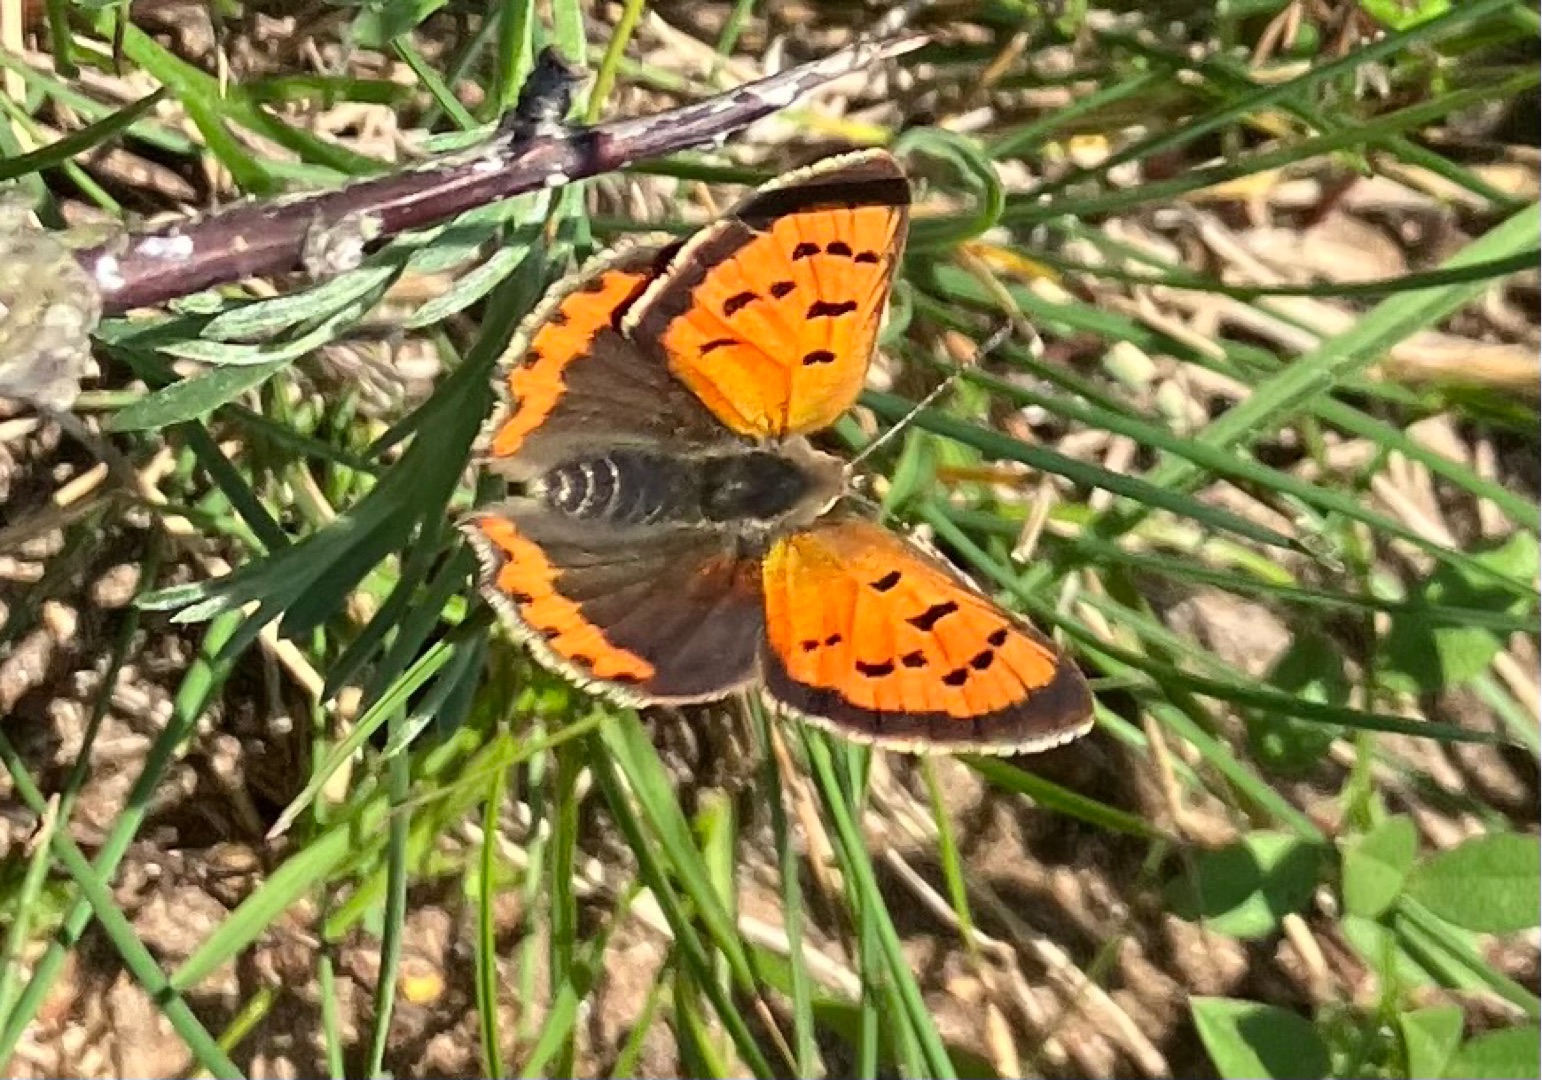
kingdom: Animalia
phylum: Arthropoda
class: Insecta
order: Lepidoptera
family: Lycaenidae
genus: Lycaena
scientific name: Lycaena phlaeas
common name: Lille ildfugl
